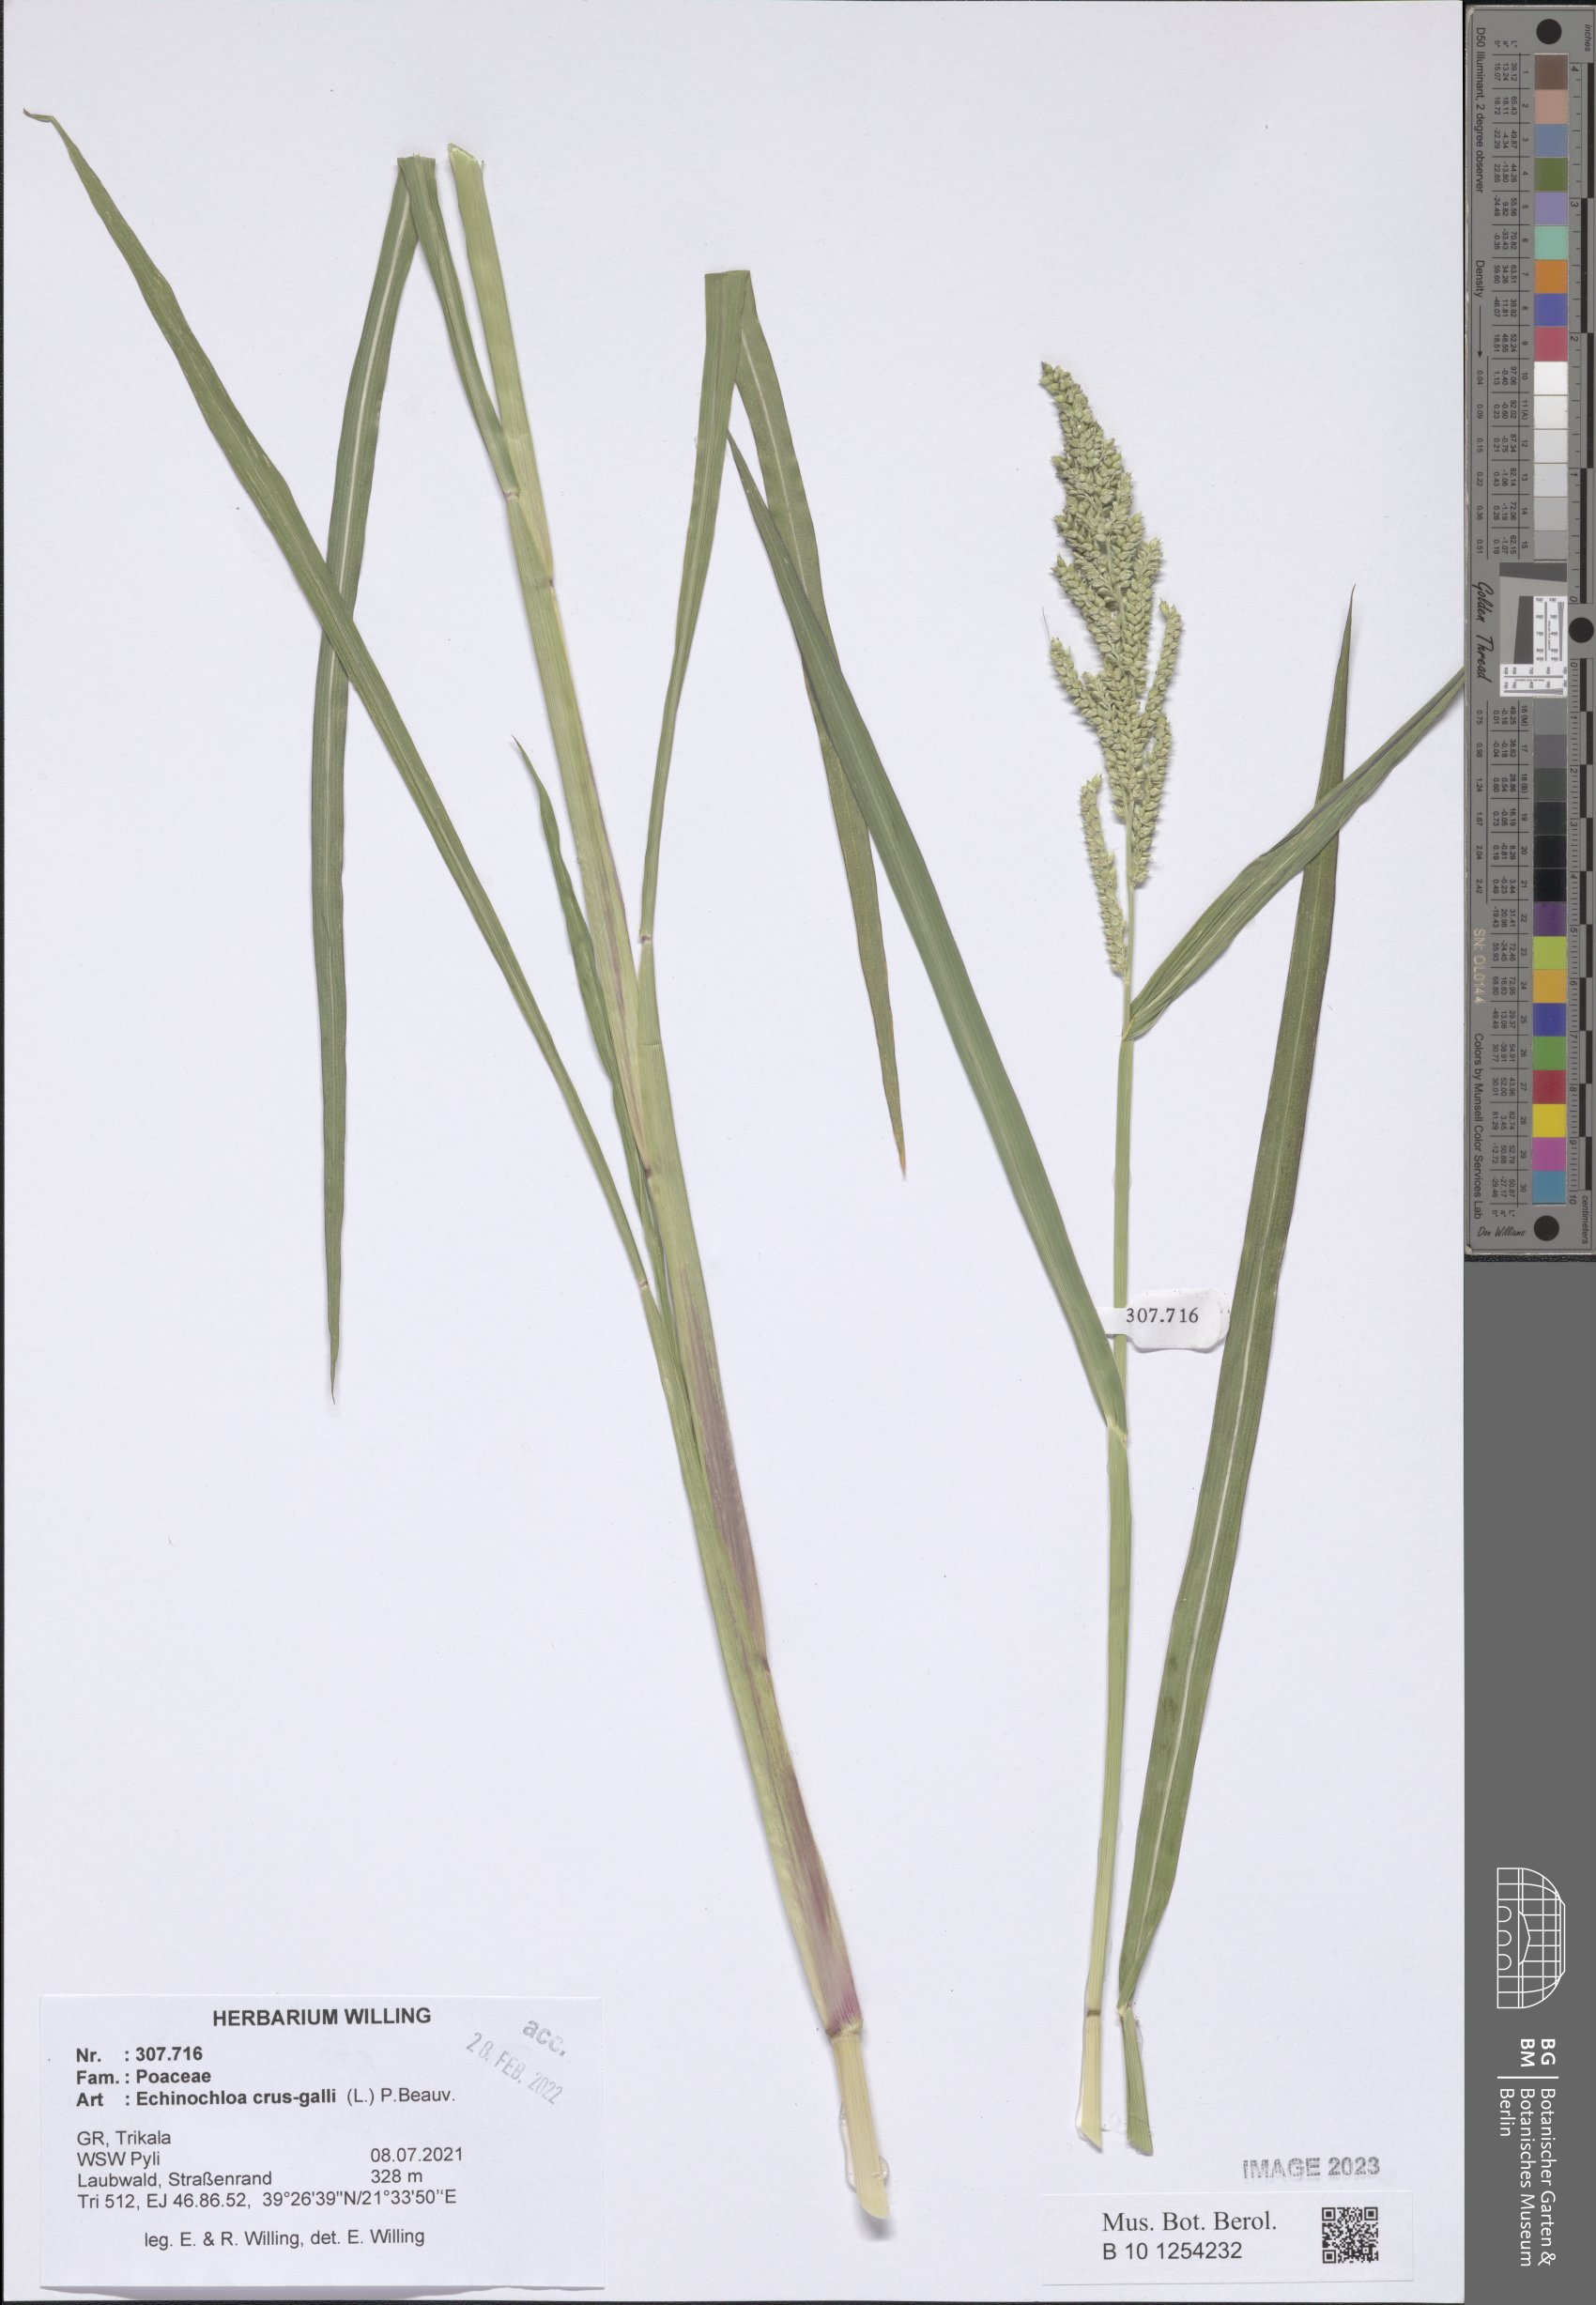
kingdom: Plantae
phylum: Tracheophyta
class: Liliopsida
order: Poales
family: Poaceae
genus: Echinochloa
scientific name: Echinochloa crus-galli
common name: Cockspur
